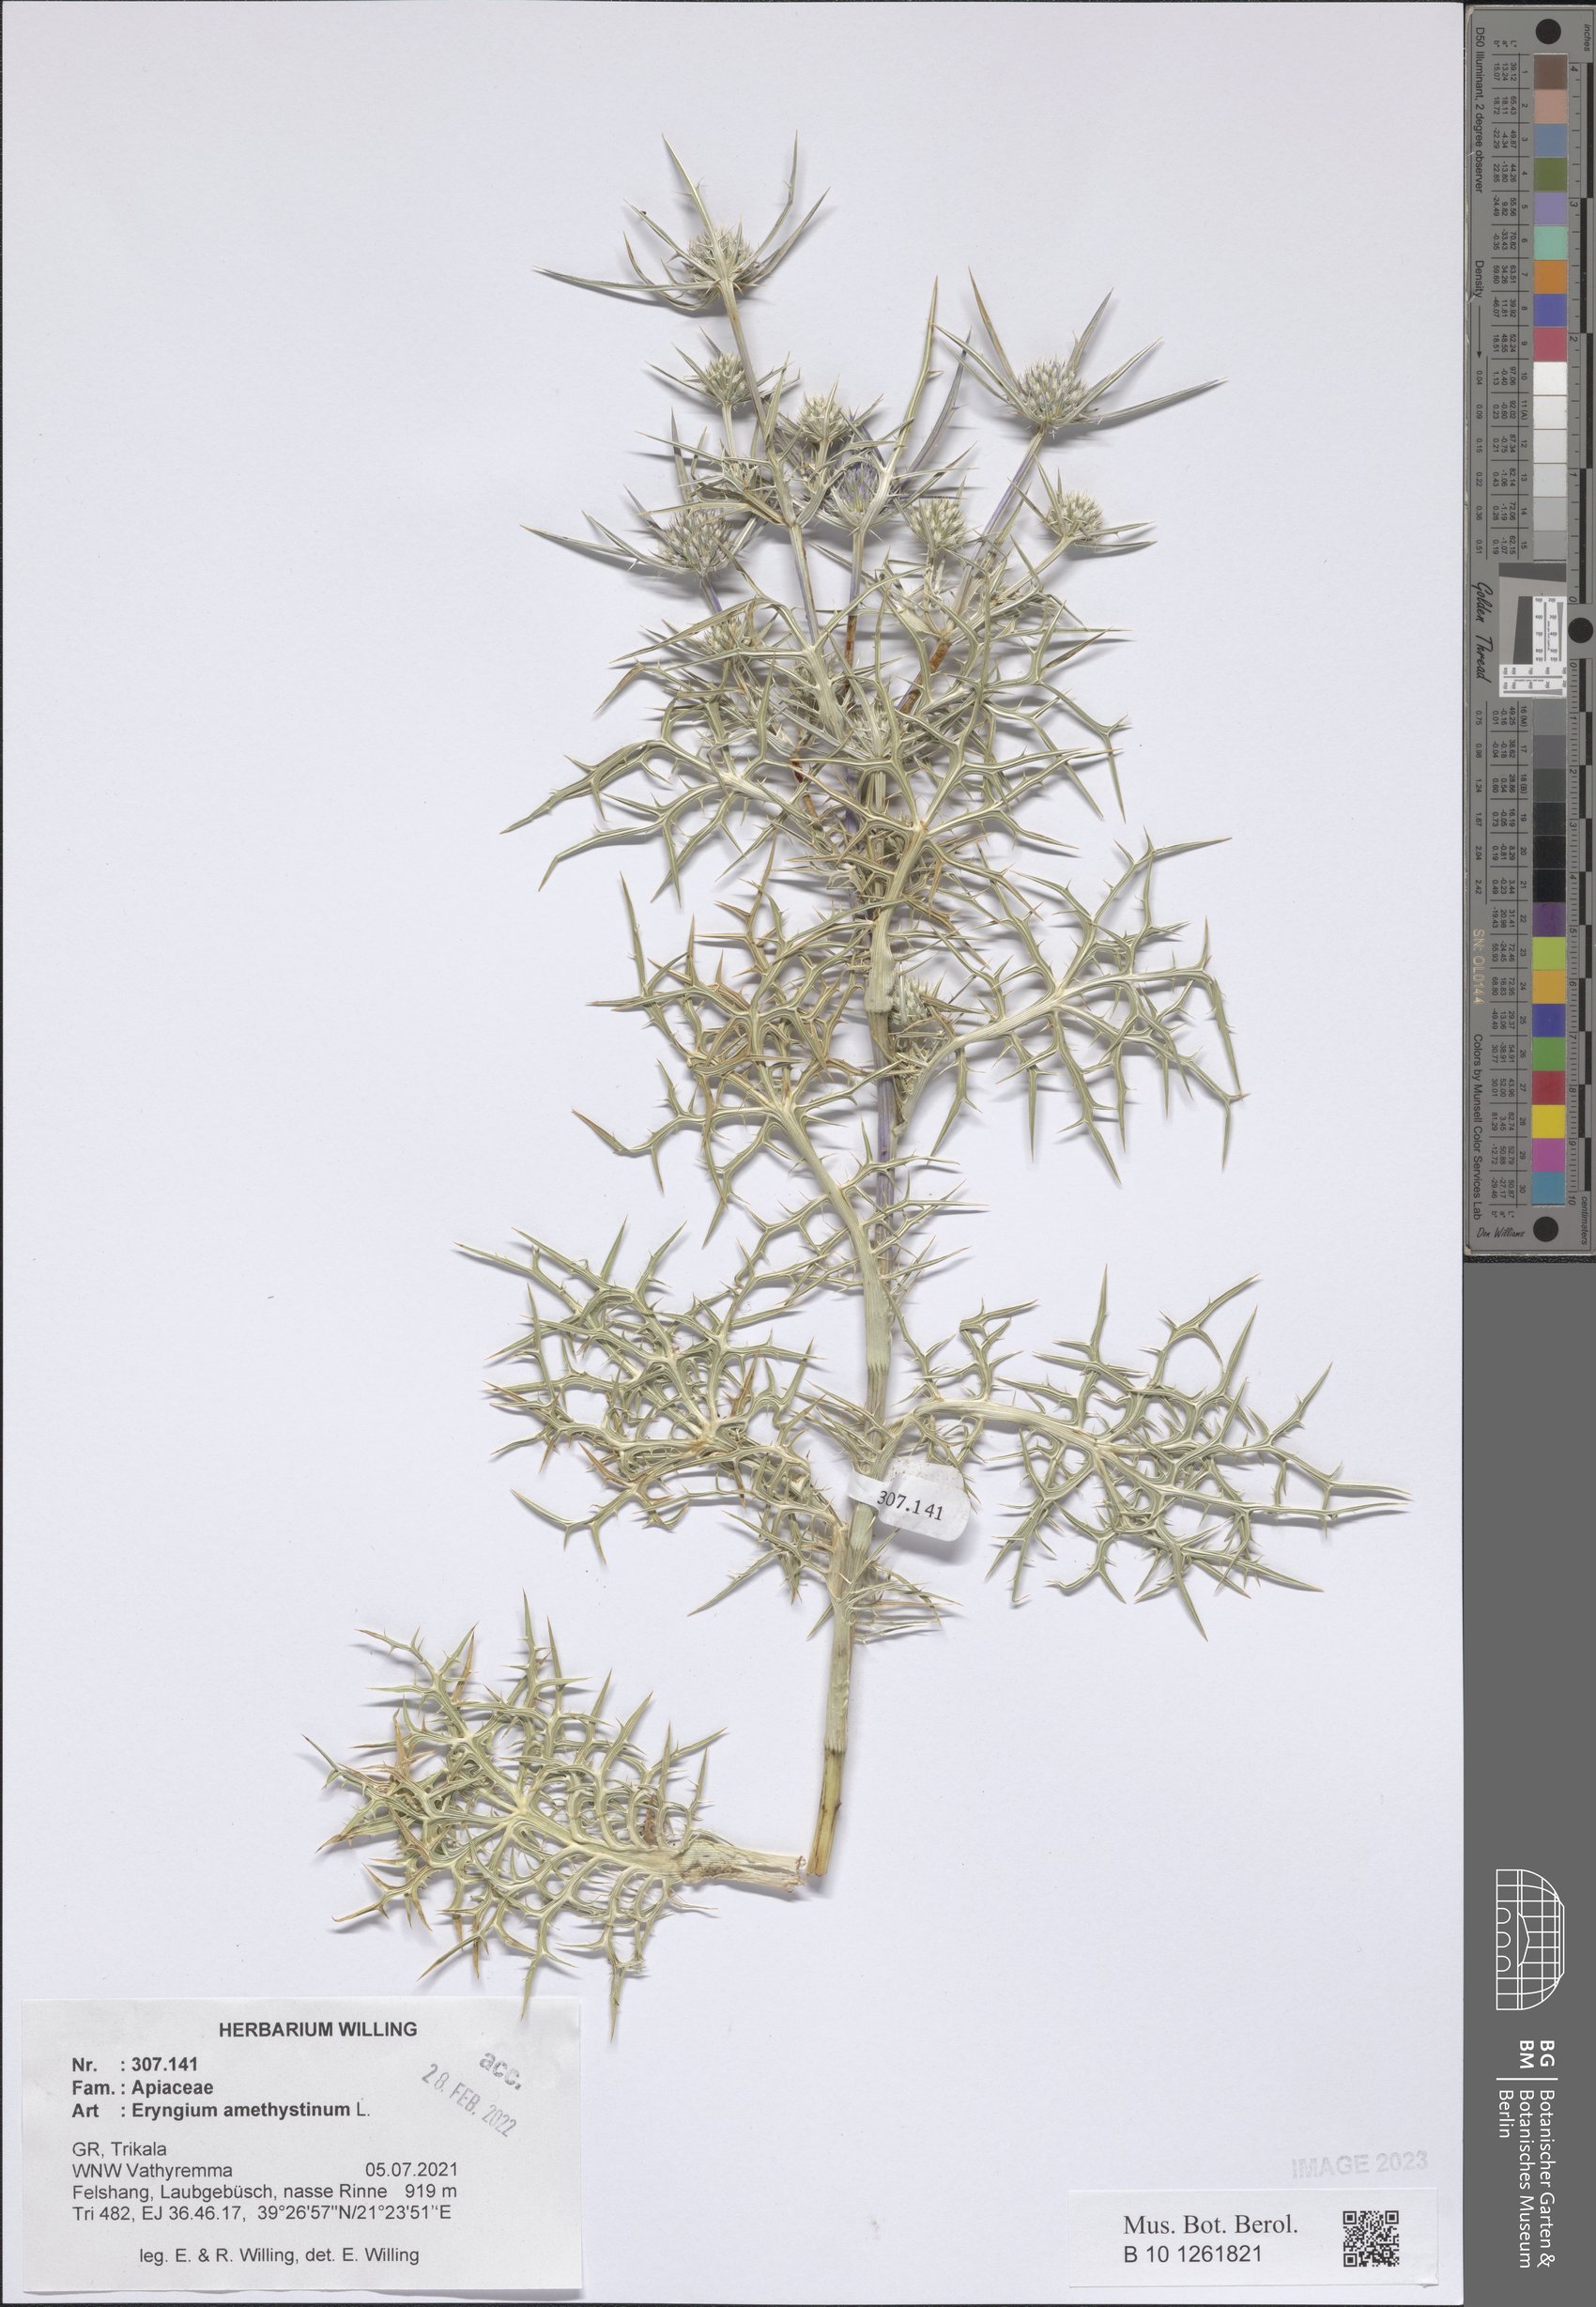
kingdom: Plantae
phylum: Tracheophyta
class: Magnoliopsida
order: Apiales
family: Apiaceae
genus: Eryngium
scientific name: Eryngium amethystinum
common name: Amethyst eryngo
